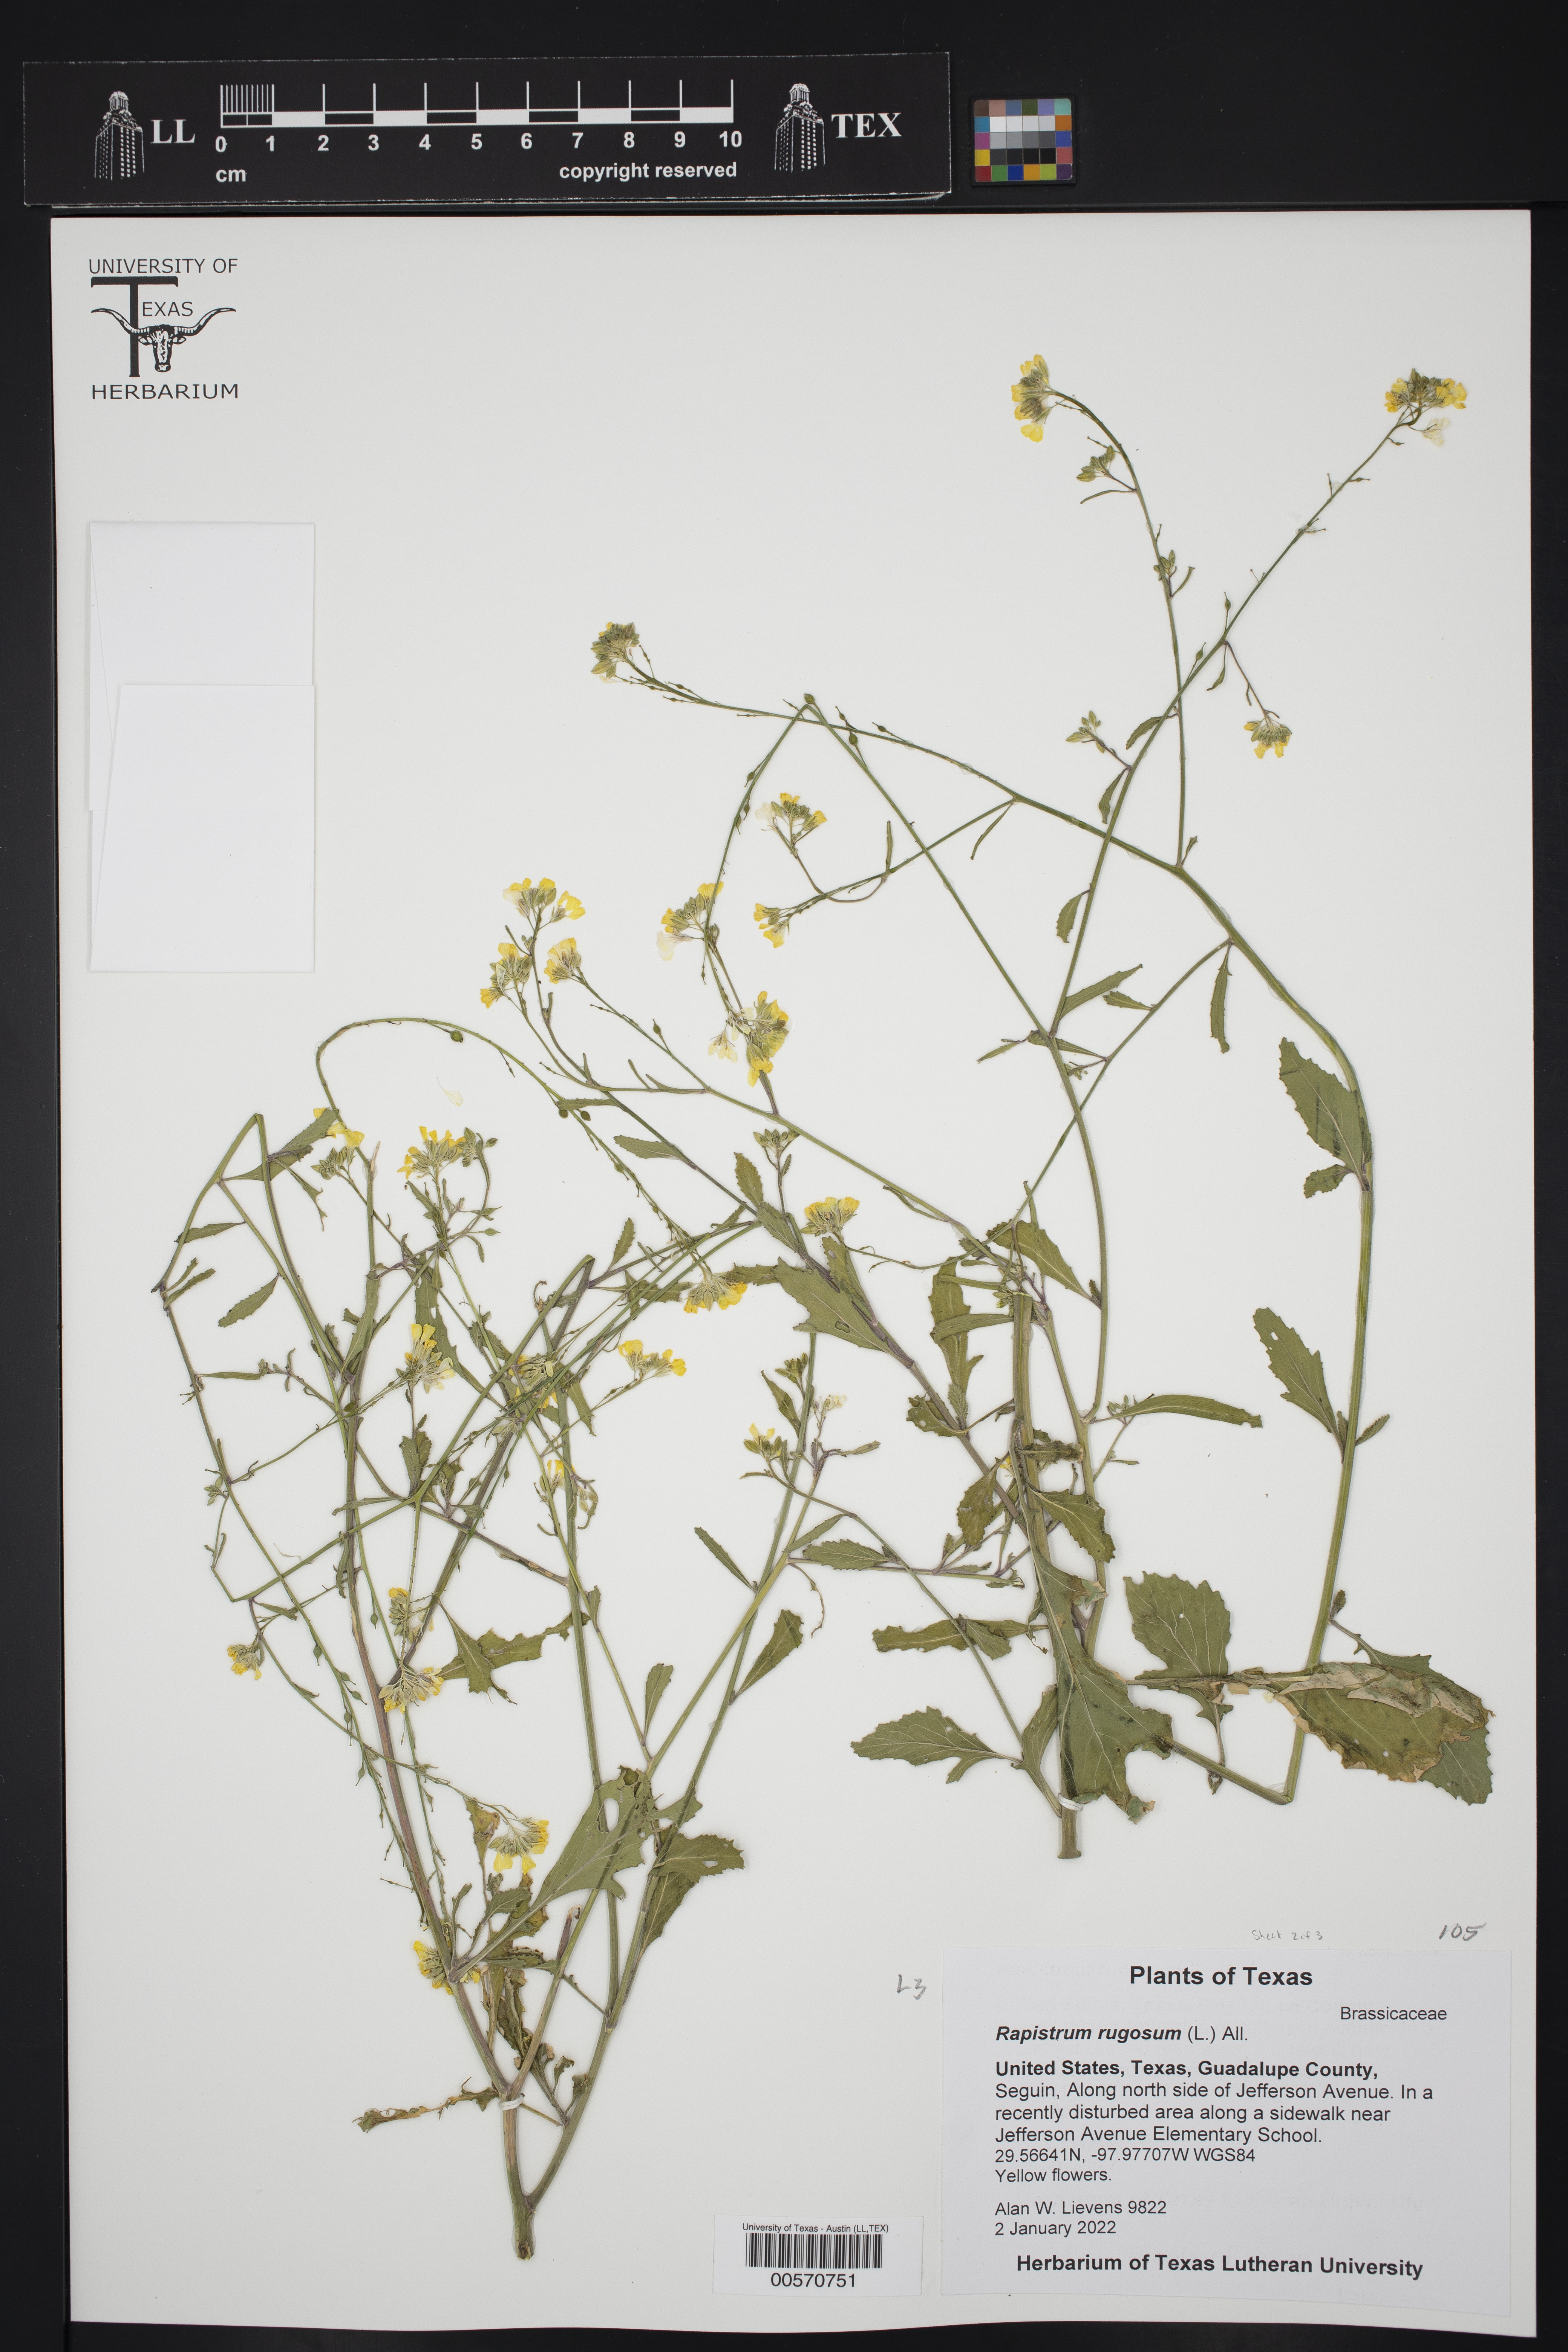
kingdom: Plantae
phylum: Tracheophyta
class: Magnoliopsida
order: Brassicales
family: Brassicaceae
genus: Rapistrum
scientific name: Rapistrum rugosum
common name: Annual bastardcabbage
